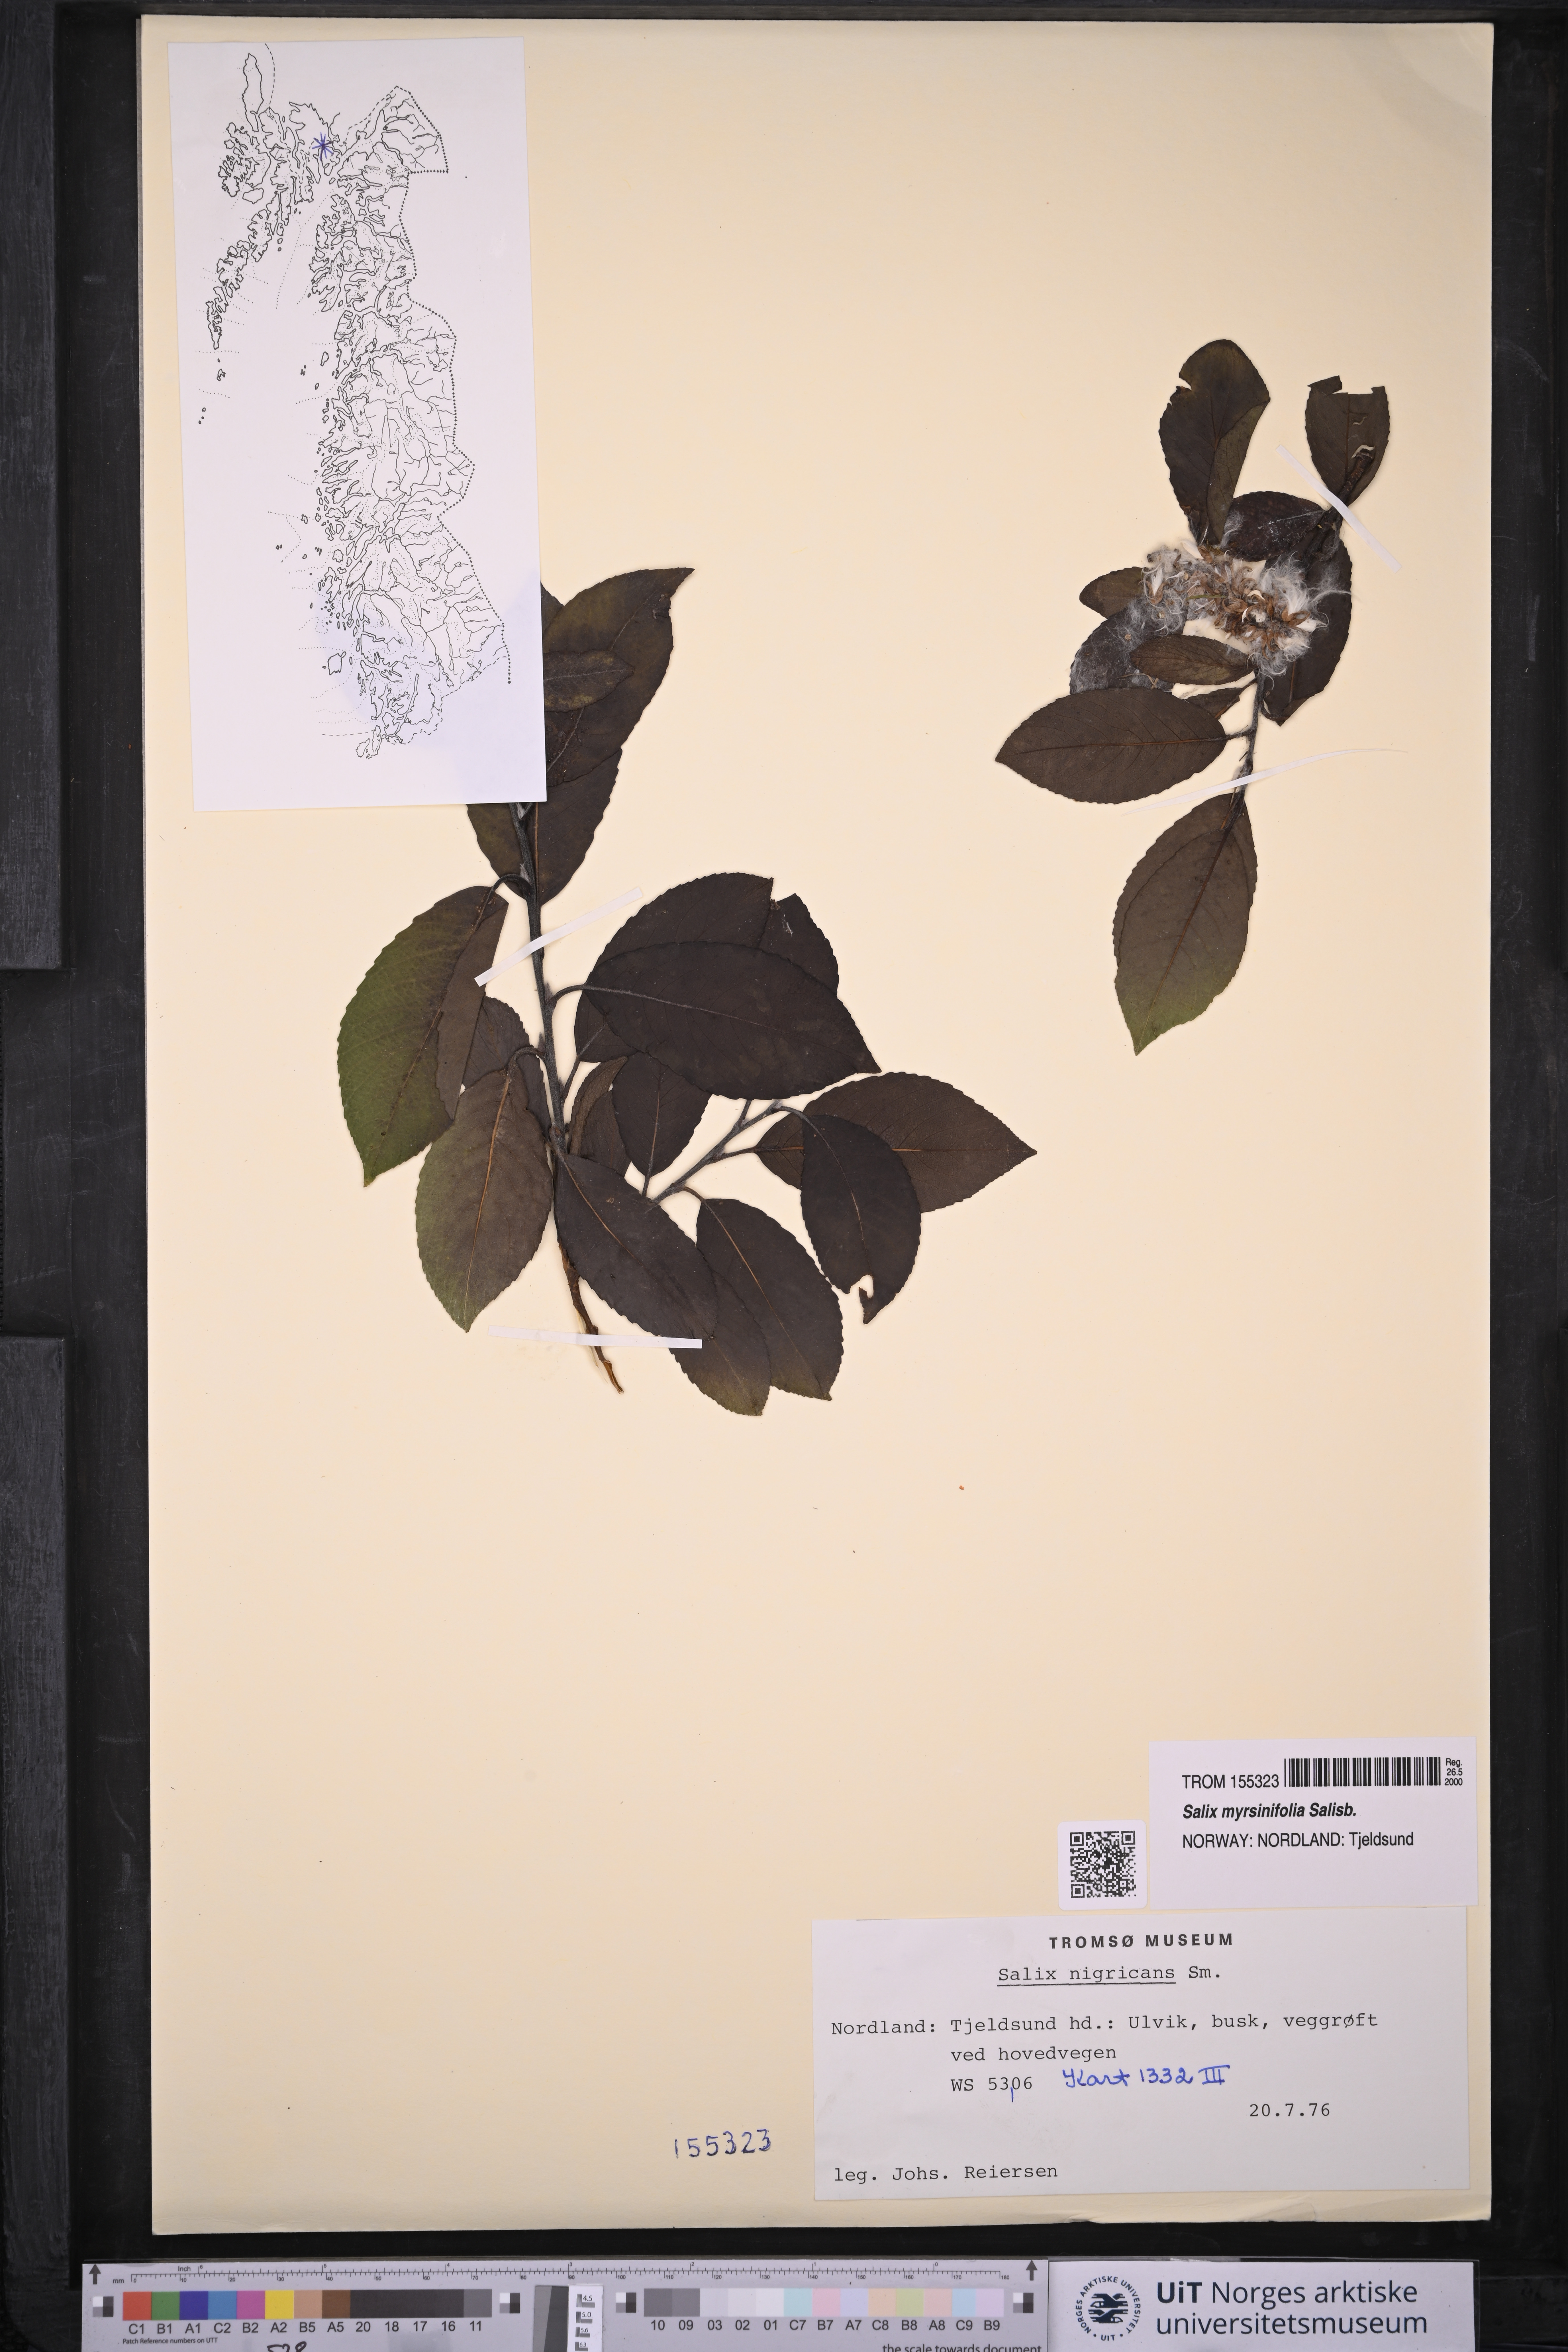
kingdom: Plantae
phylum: Tracheophyta
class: Magnoliopsida
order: Malpighiales
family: Salicaceae
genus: Salix
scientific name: Salix myrsinifolia
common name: Dark-leaved willow
